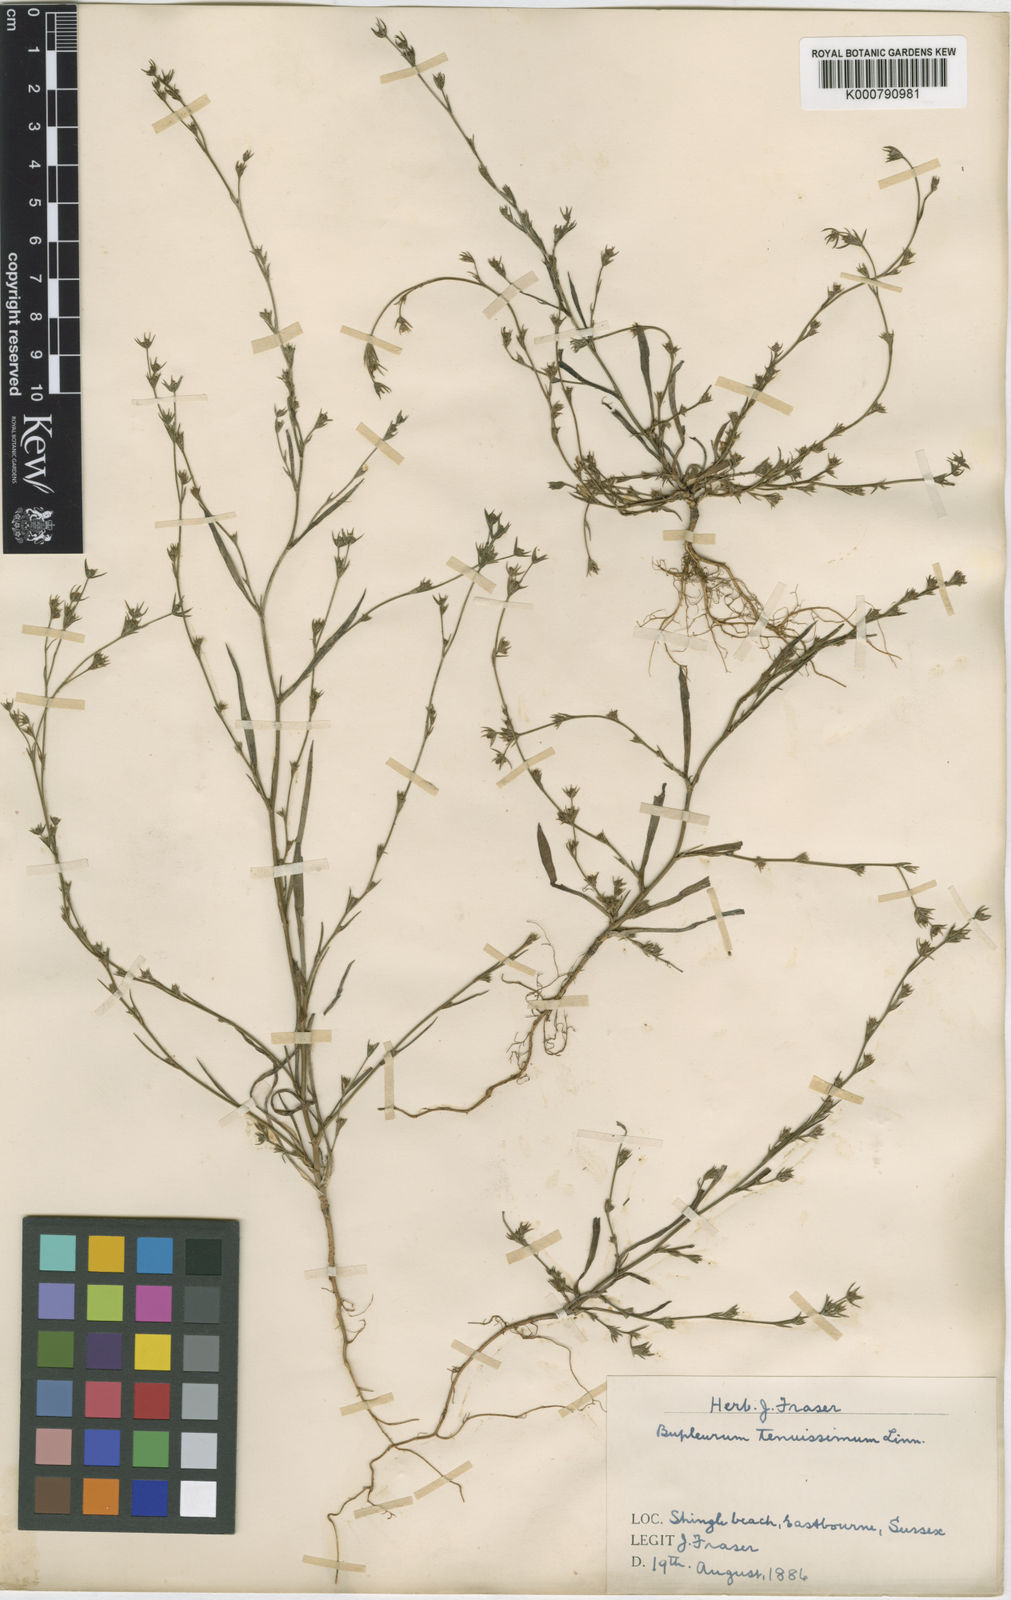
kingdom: Plantae
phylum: Tracheophyta
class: Magnoliopsida
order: Apiales
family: Apiaceae
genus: Bupleurum
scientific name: Bupleurum tenuissimum
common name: Slender hare's-ear
